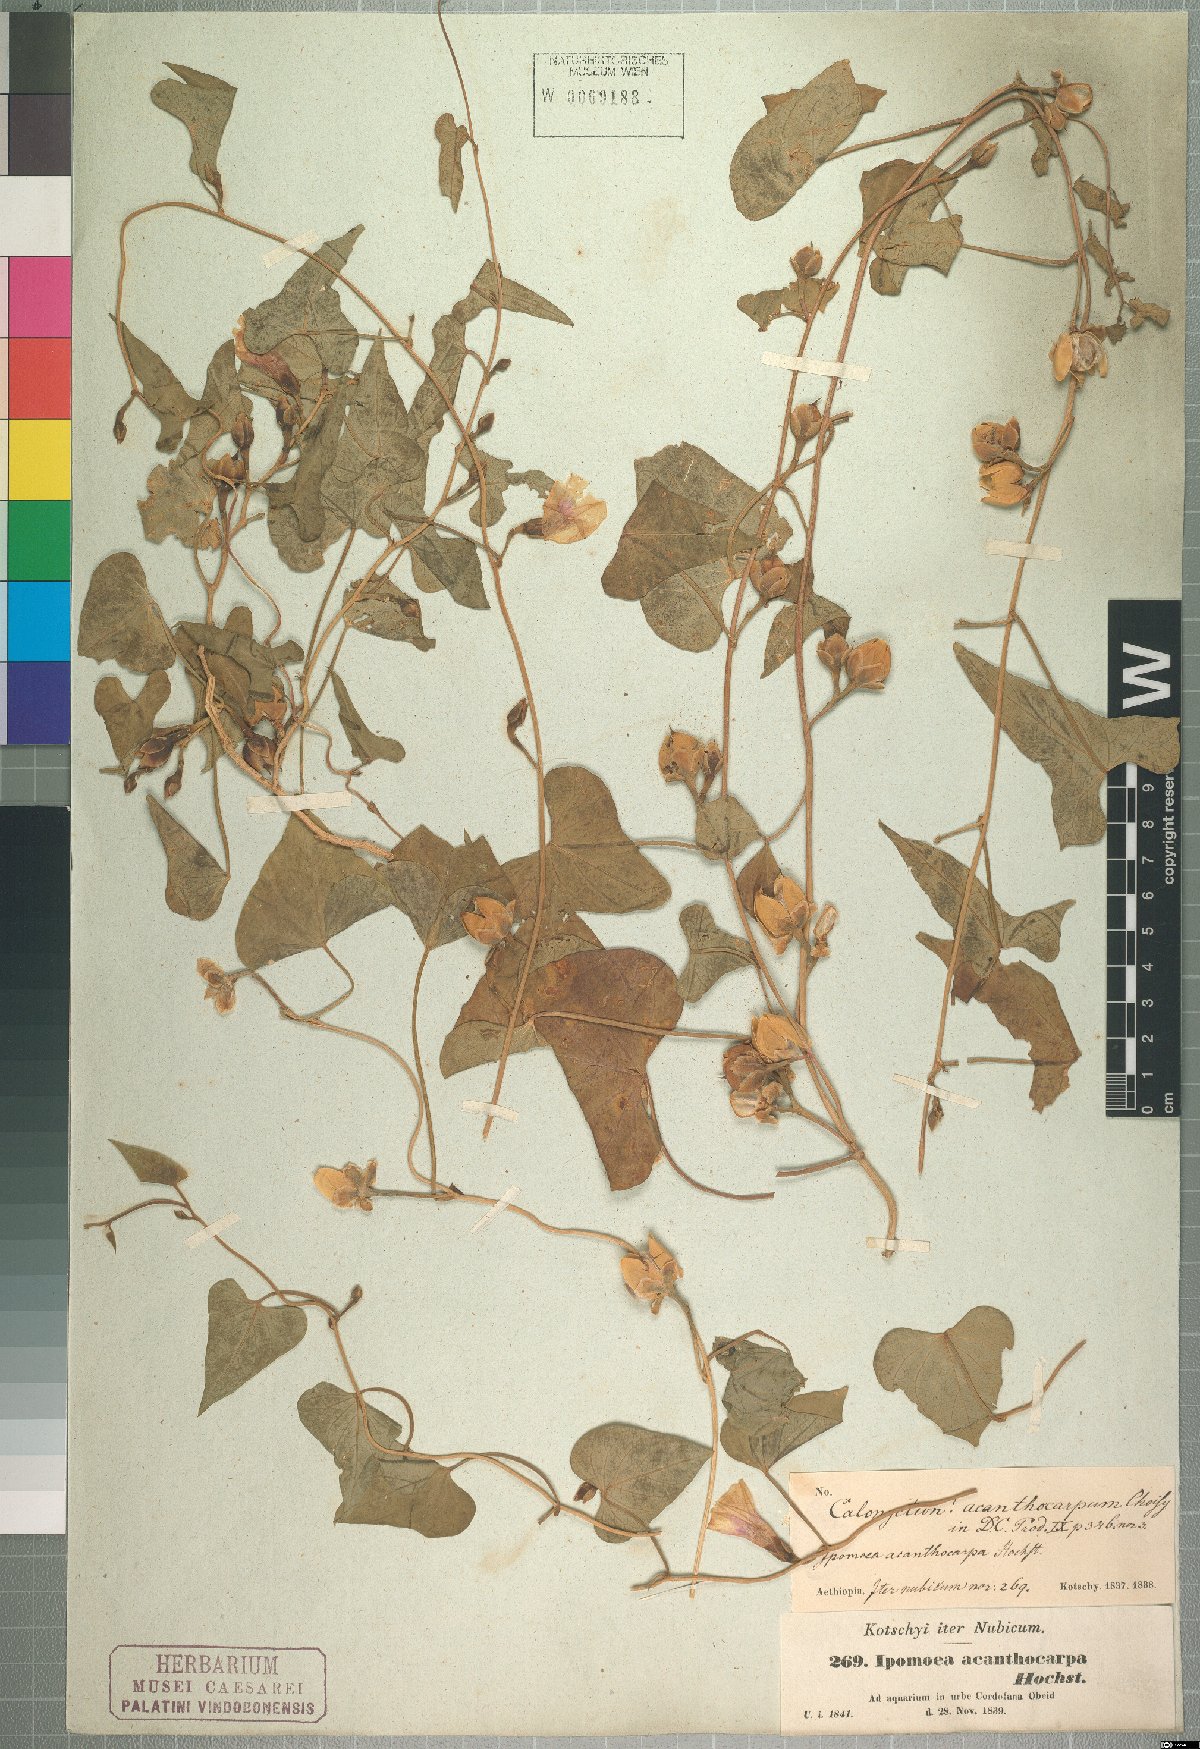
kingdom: Plantae
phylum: Tracheophyta
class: Magnoliopsida
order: Solanales
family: Convolvulaceae
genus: Ipomoea
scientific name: Ipomoea obscura
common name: Obscure morning-glory
